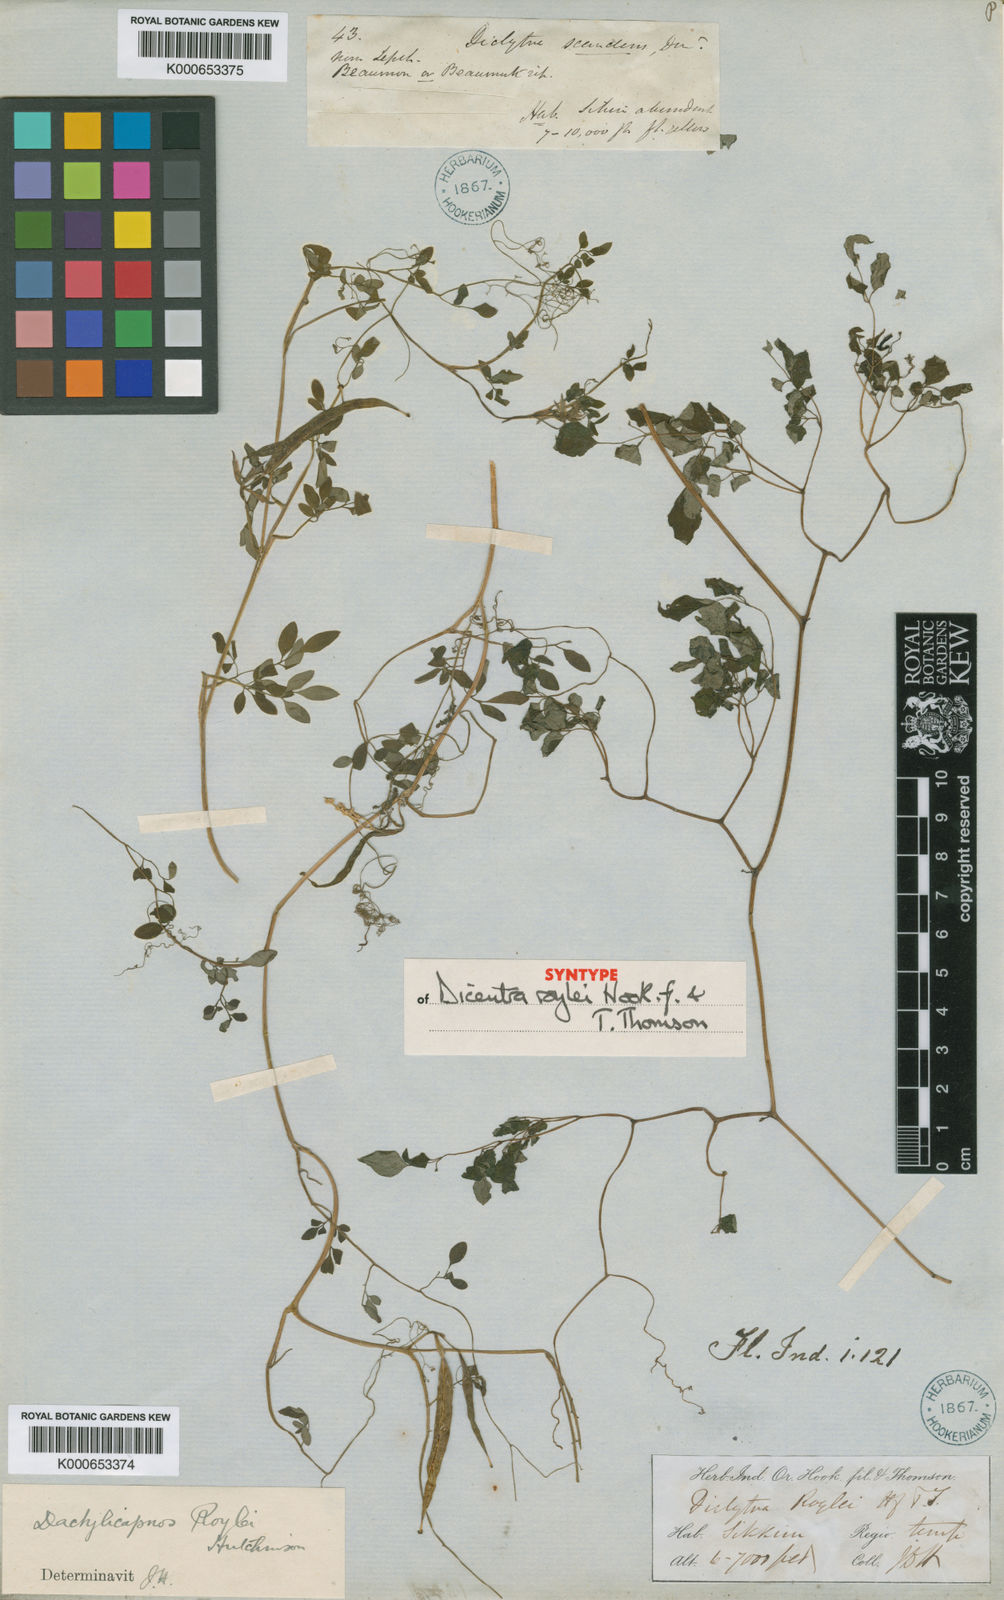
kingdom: Plantae
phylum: Tracheophyta
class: Magnoliopsida
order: Ranunculales
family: Papaveraceae
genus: Dactylicapnos
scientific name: Dactylicapnos roylei
